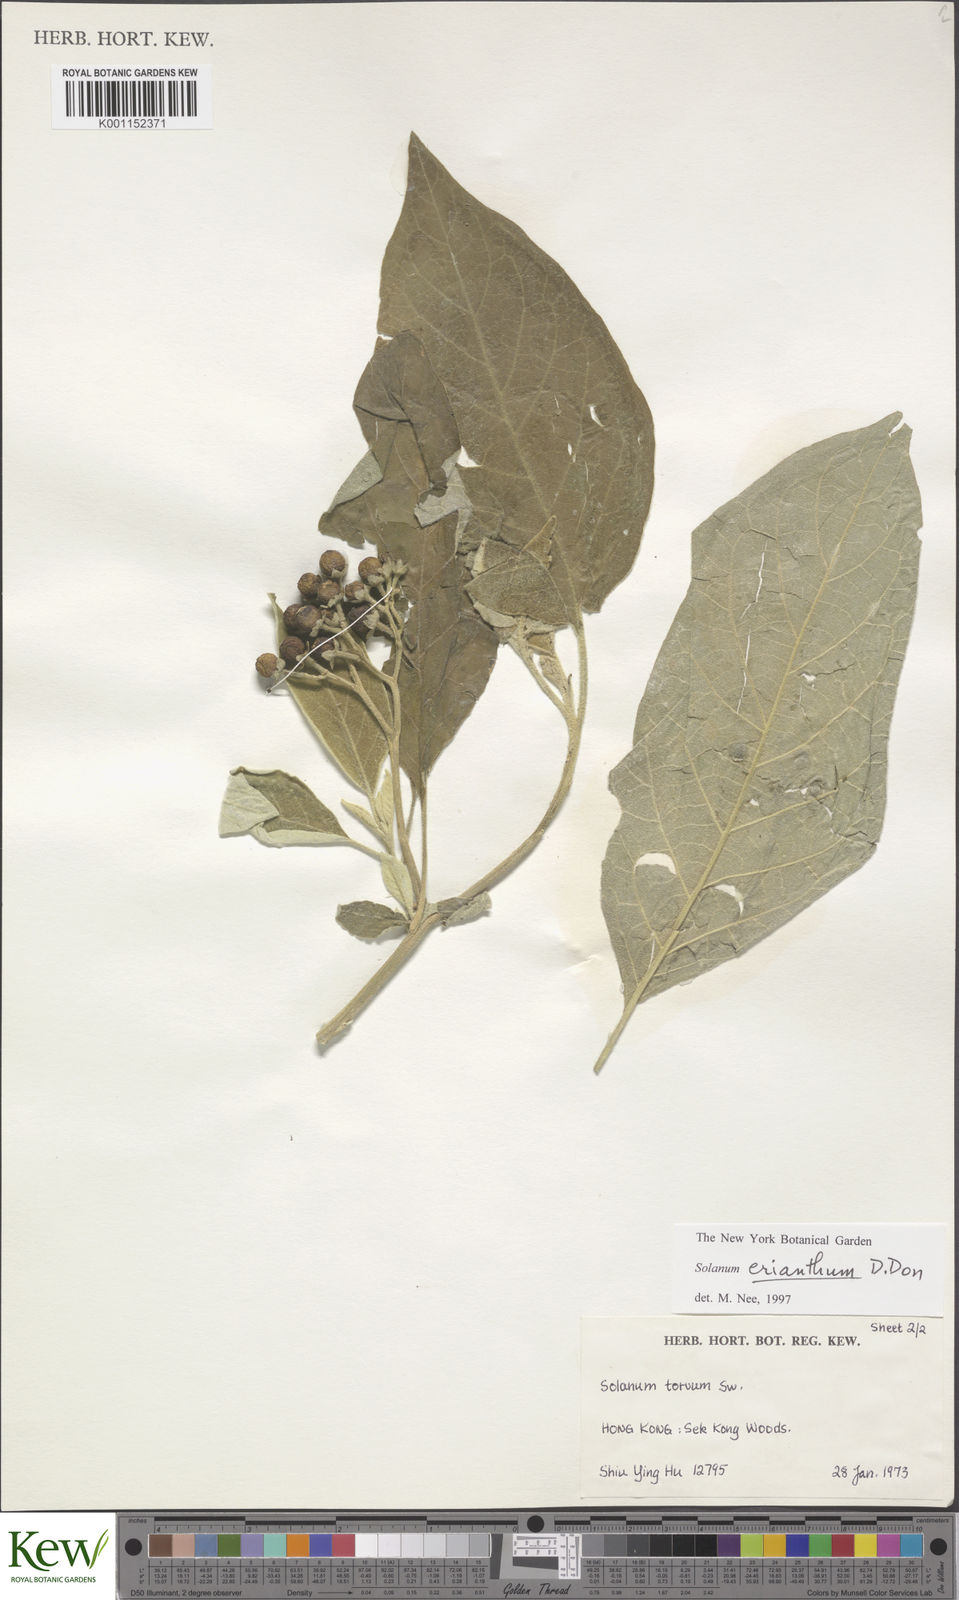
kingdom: Plantae
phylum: Tracheophyta
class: Magnoliopsida
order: Solanales
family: Solanaceae
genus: Solanum
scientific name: Solanum erianthum
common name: Tobacco-tree
